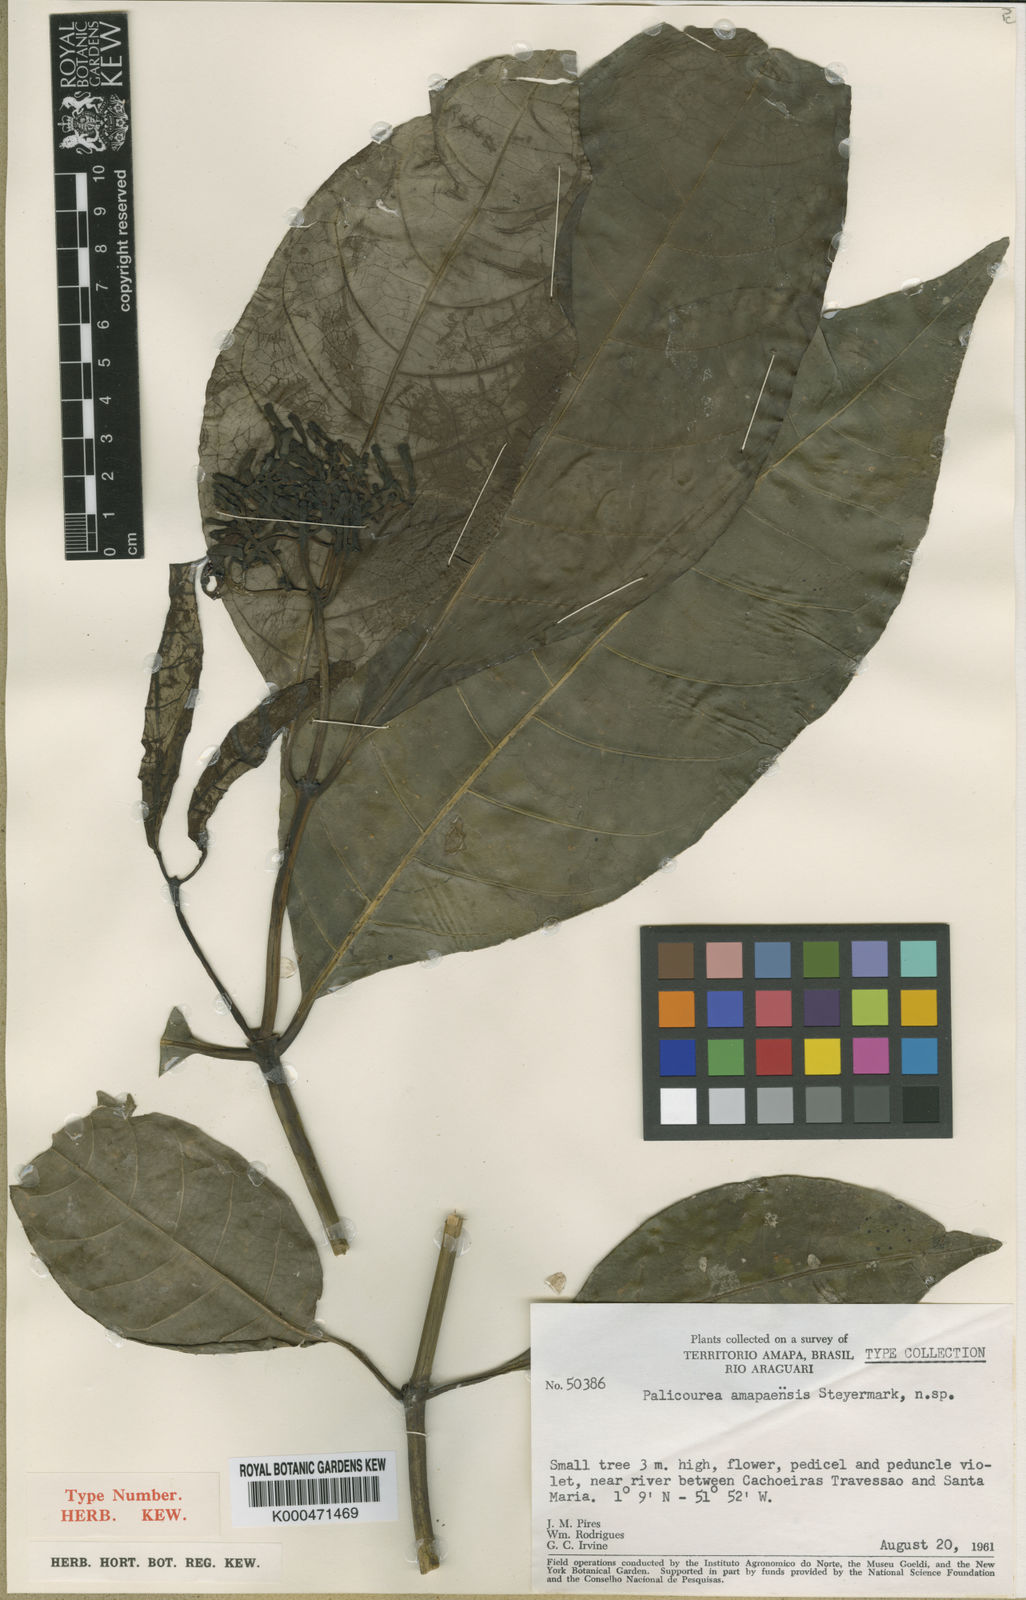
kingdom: Plantae
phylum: Tracheophyta
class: Magnoliopsida
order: Gentianales
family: Rubiaceae
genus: Palicourea
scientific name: Palicourea amapaensis
